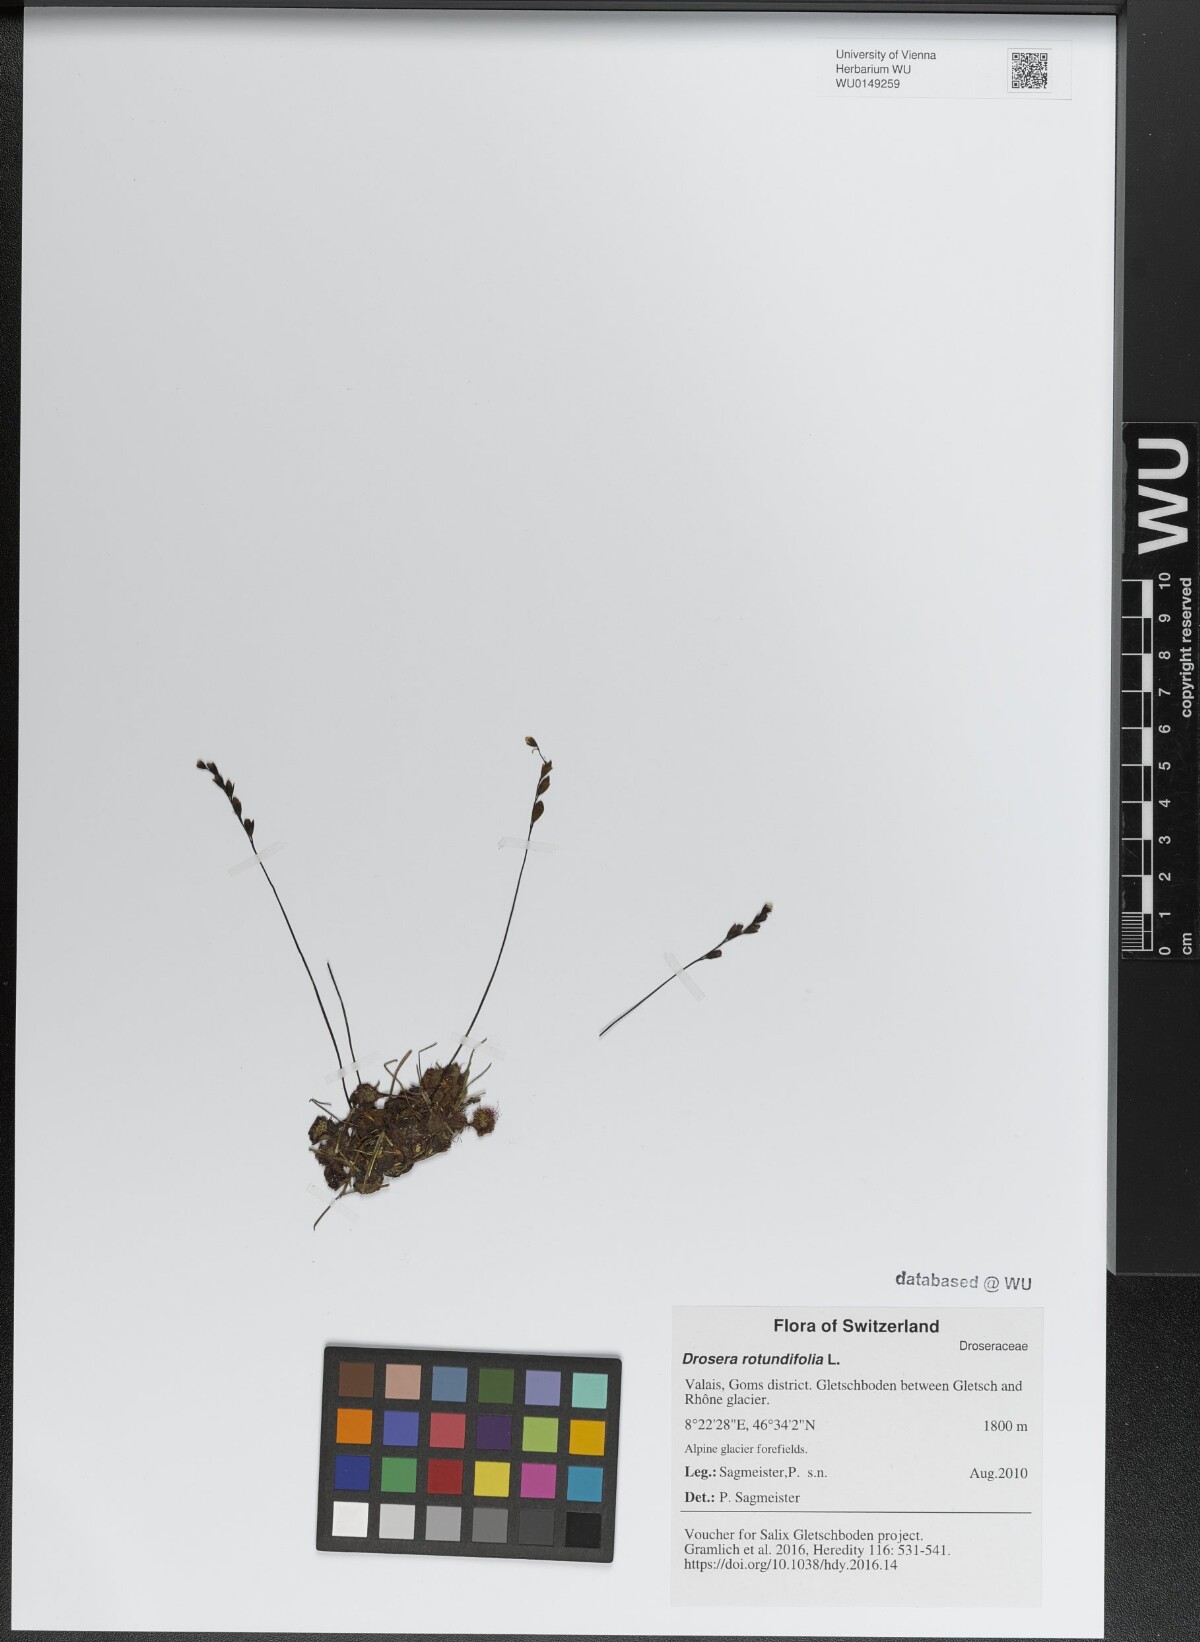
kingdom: Plantae
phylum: Tracheophyta
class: Magnoliopsida
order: Caryophyllales
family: Droseraceae
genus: Drosera
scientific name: Drosera rotundifolia
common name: Round-leaved sundew
